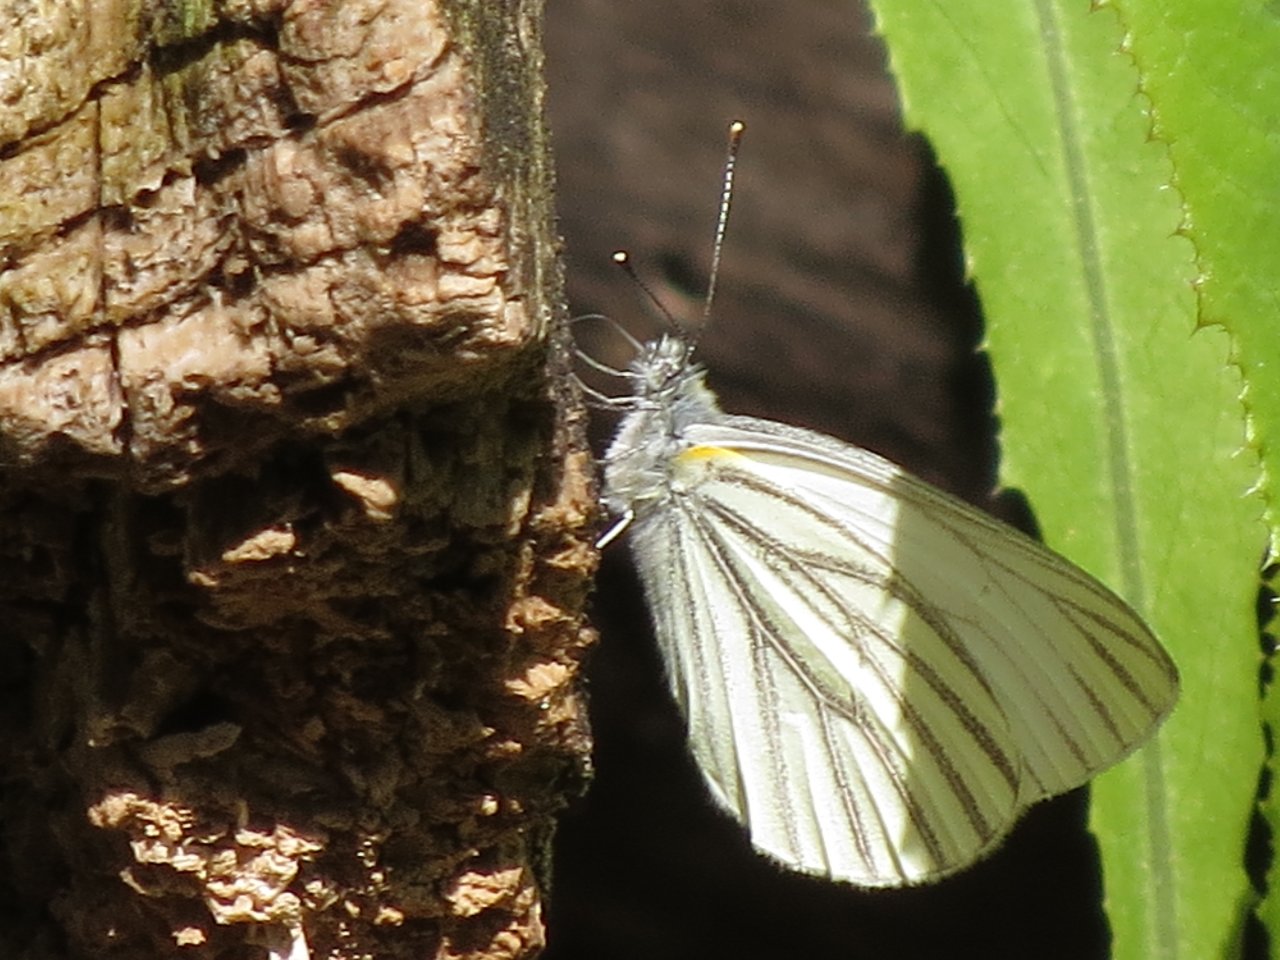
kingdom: Animalia
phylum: Arthropoda
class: Insecta
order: Lepidoptera
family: Pieridae
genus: Pieris
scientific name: Pieris oleracea
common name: Mustard White
